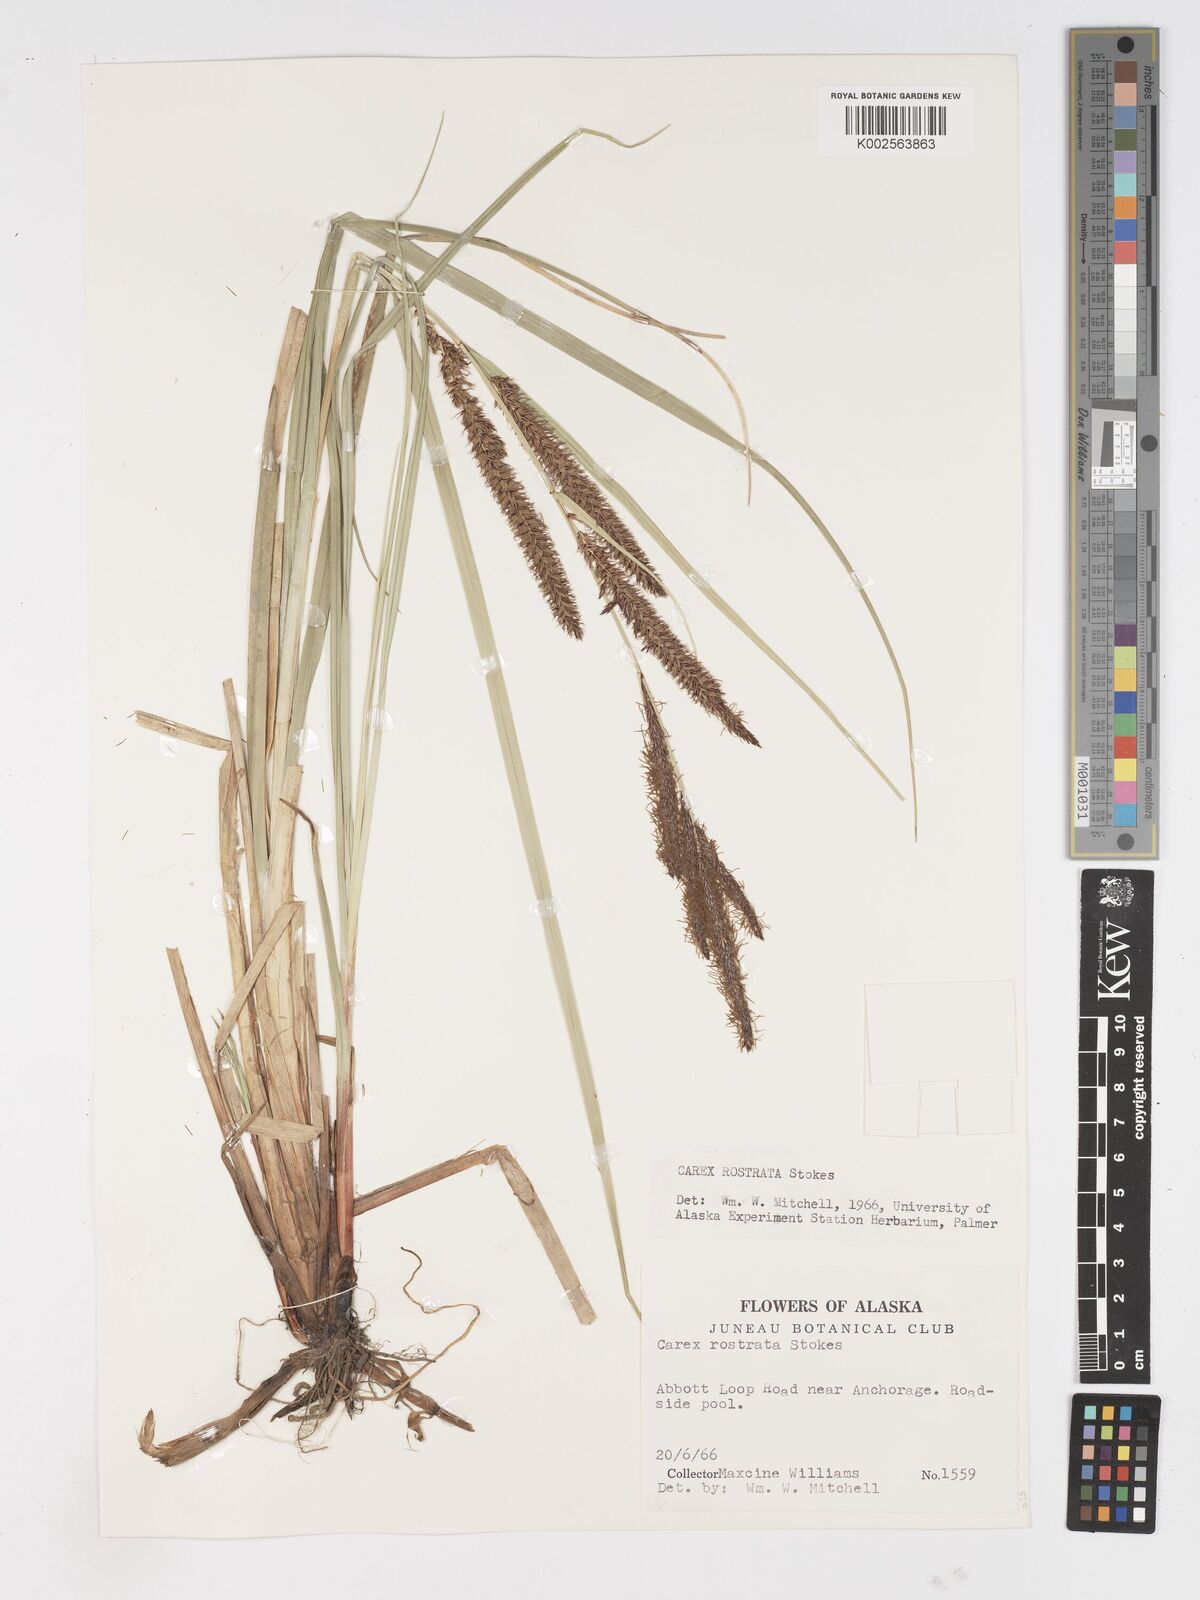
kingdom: Plantae
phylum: Tracheophyta
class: Liliopsida
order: Poales
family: Cyperaceae
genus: Carex
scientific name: Carex rostrata
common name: Bottle sedge
